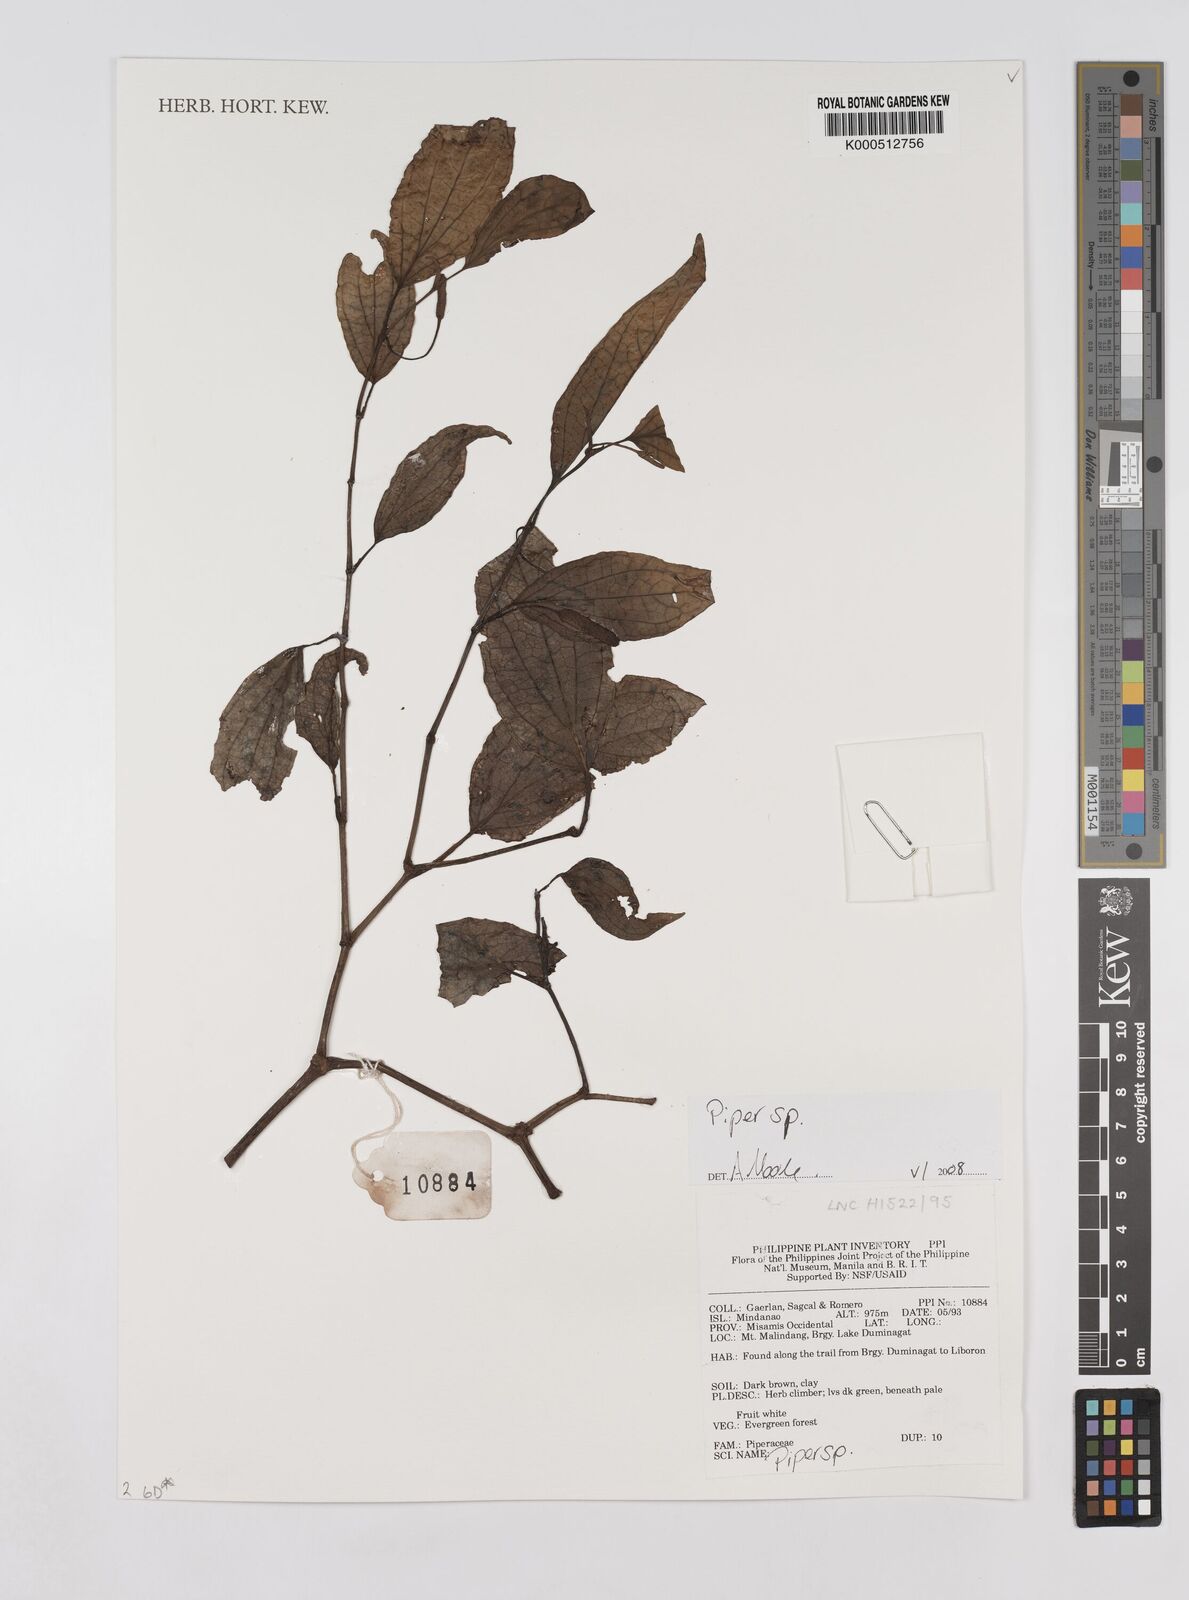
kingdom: Plantae
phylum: Tracheophyta
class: Magnoliopsida
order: Piperales
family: Piperaceae
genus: Piper
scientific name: Piper
